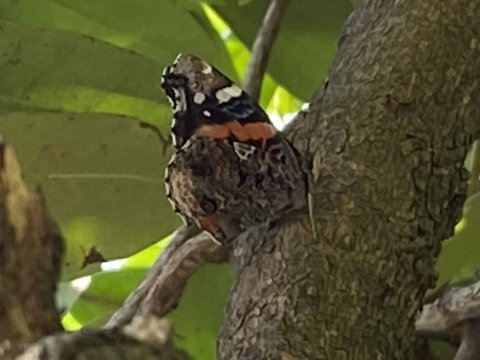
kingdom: Animalia
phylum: Arthropoda
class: Insecta
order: Lepidoptera
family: Nymphalidae
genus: Vanessa
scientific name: Vanessa atalanta
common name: Red Admiral
